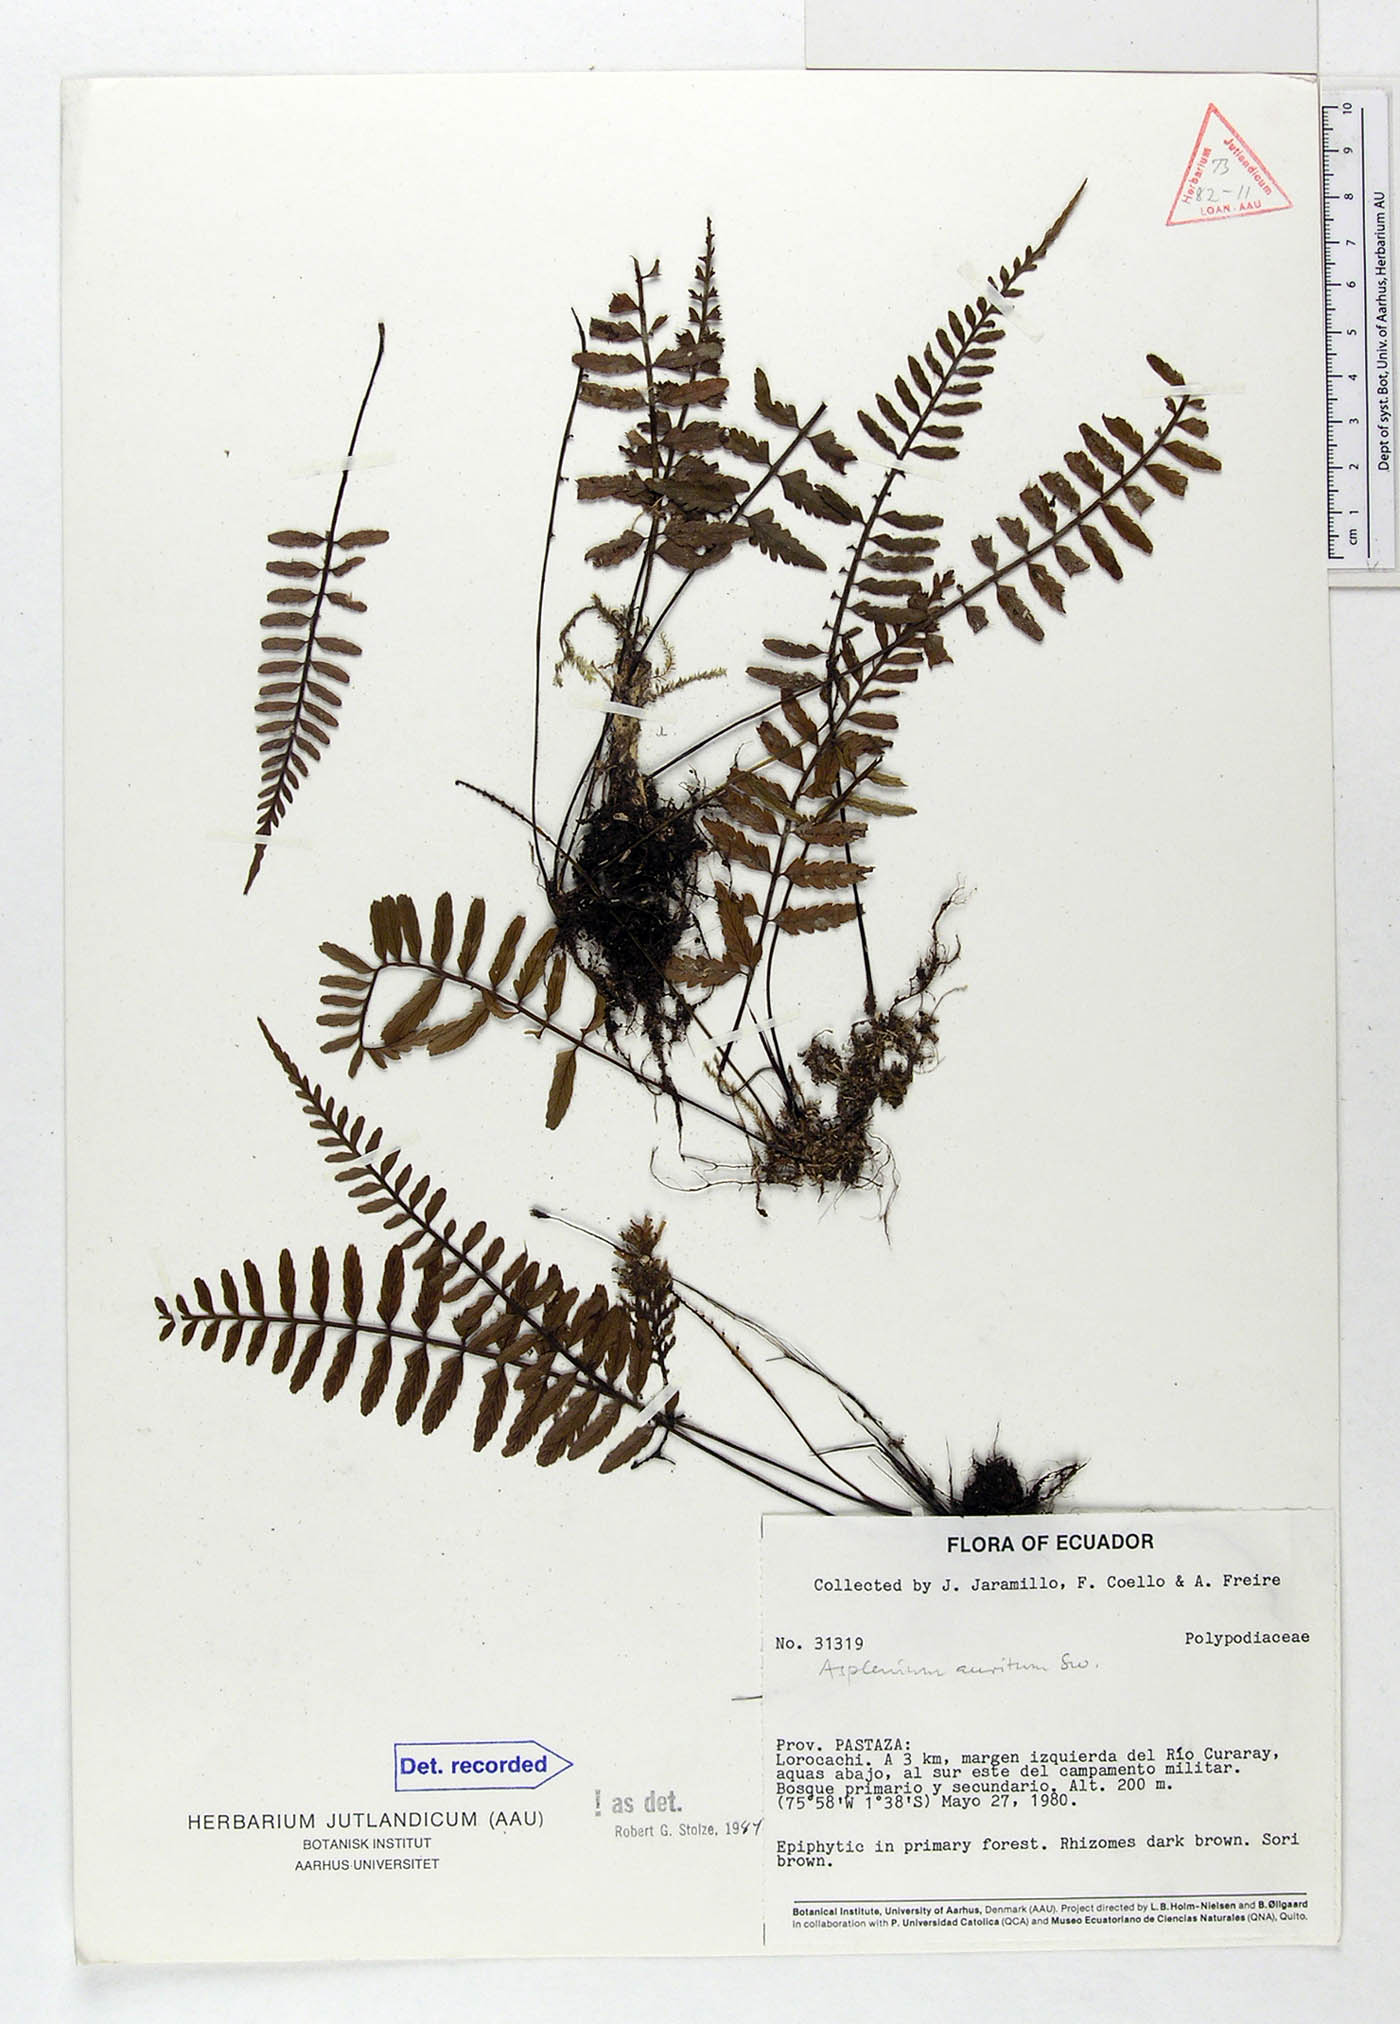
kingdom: Plantae
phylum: Tracheophyta
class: Polypodiopsida
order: Polypodiales
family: Aspleniaceae
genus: Asplenium
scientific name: Asplenium auritum
